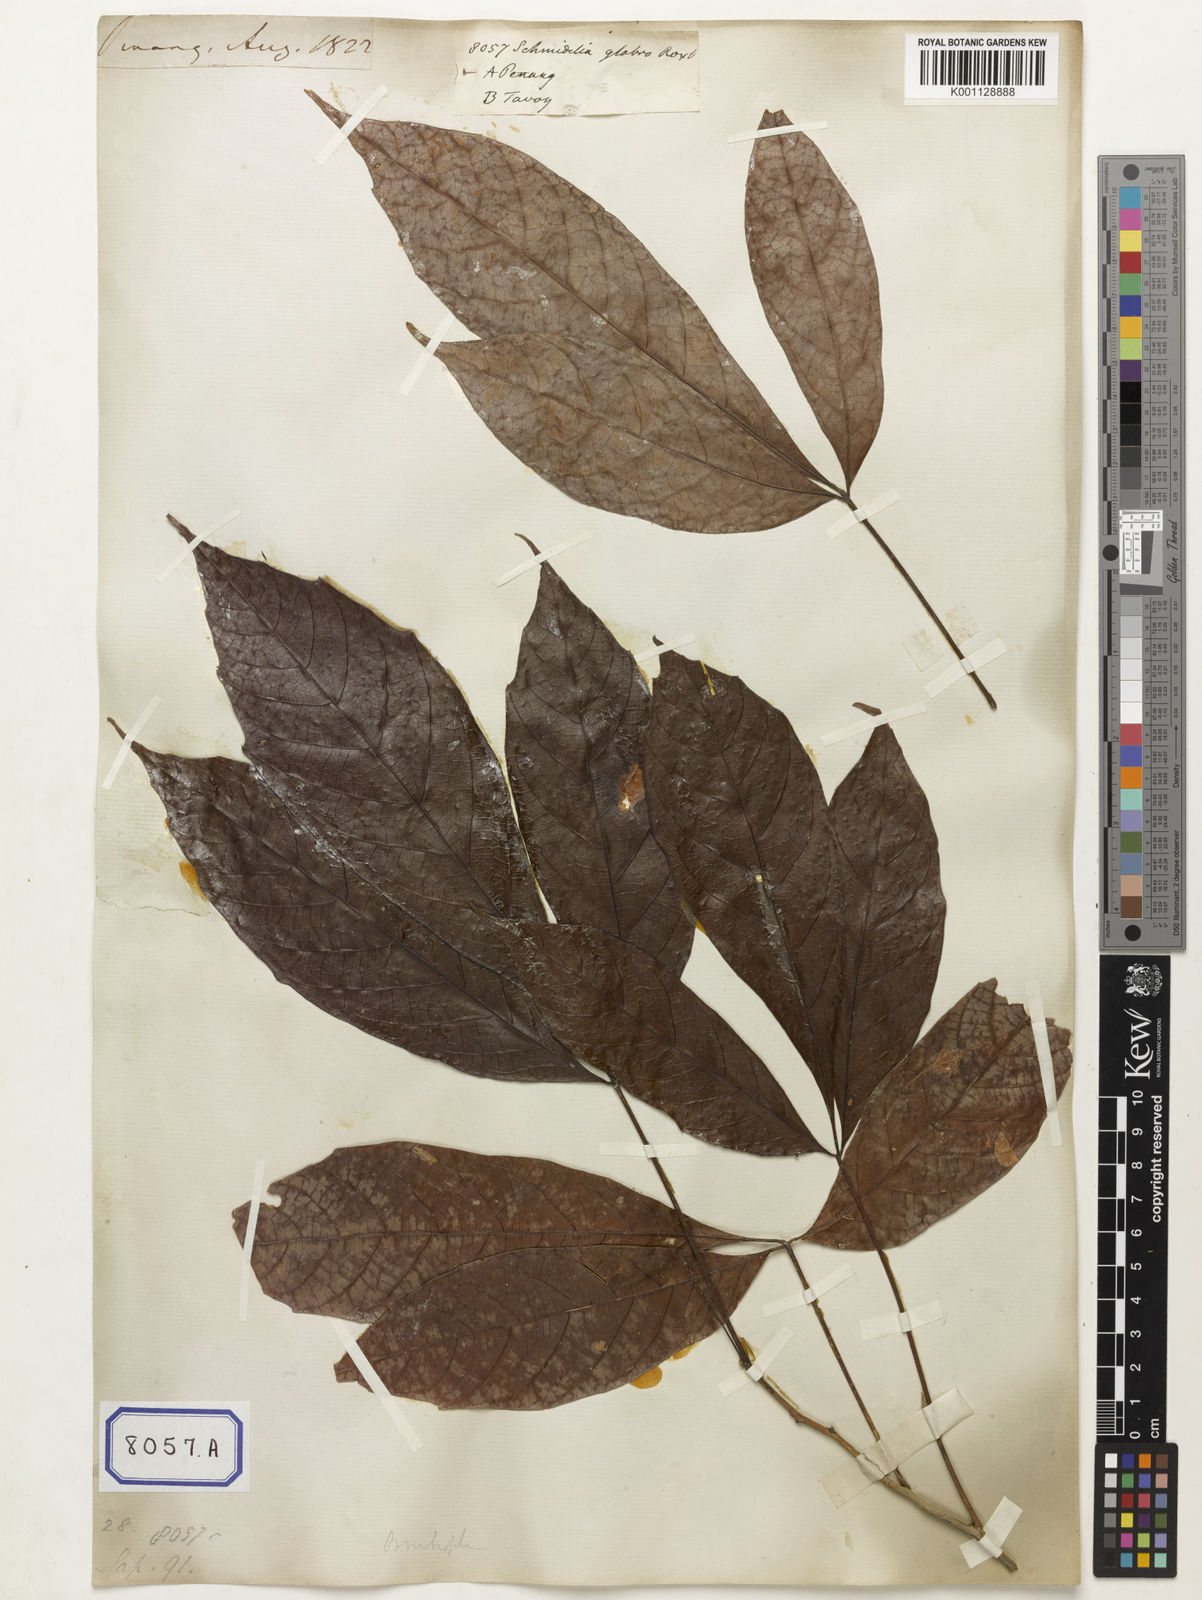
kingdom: Plantae
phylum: Tracheophyta
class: Magnoliopsida
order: Malpighiales
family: Calophyllaceae
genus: Calophyllum
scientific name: Calophyllum
